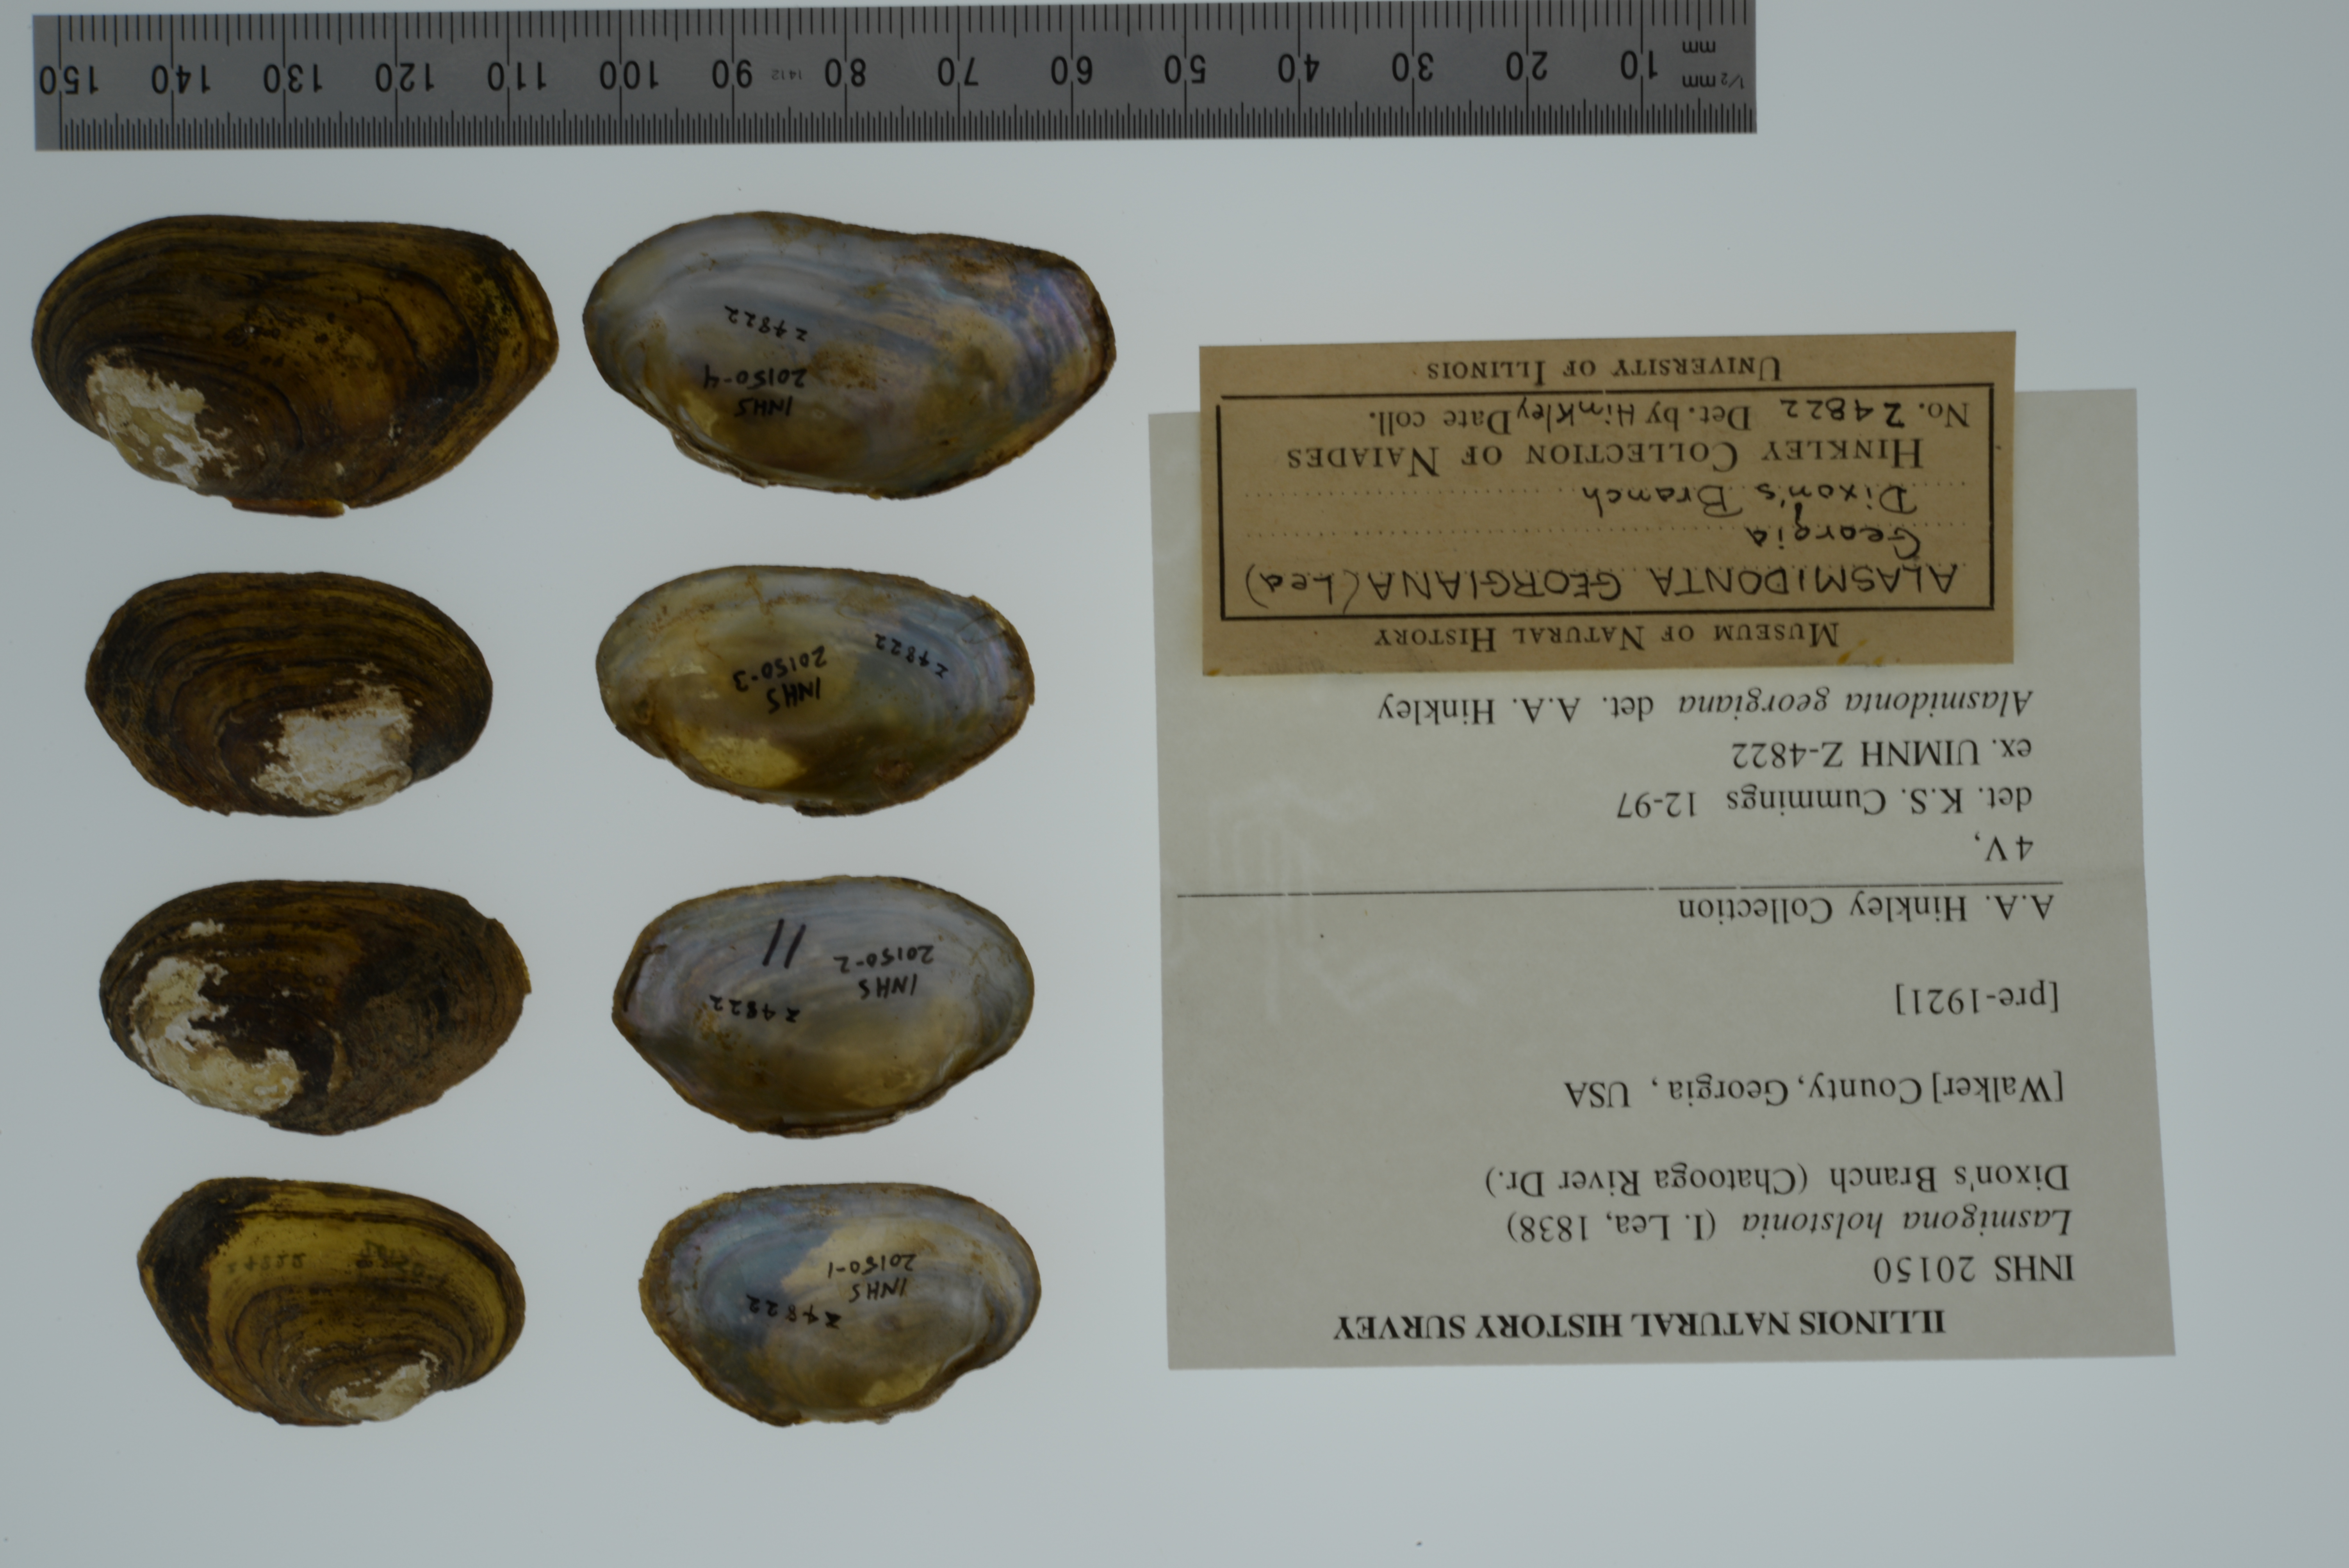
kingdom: Animalia
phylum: Mollusca
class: Bivalvia
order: Unionida
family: Unionidae
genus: Lasmigona
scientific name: Lasmigona holstonia
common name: Tennessee heelsplitter
